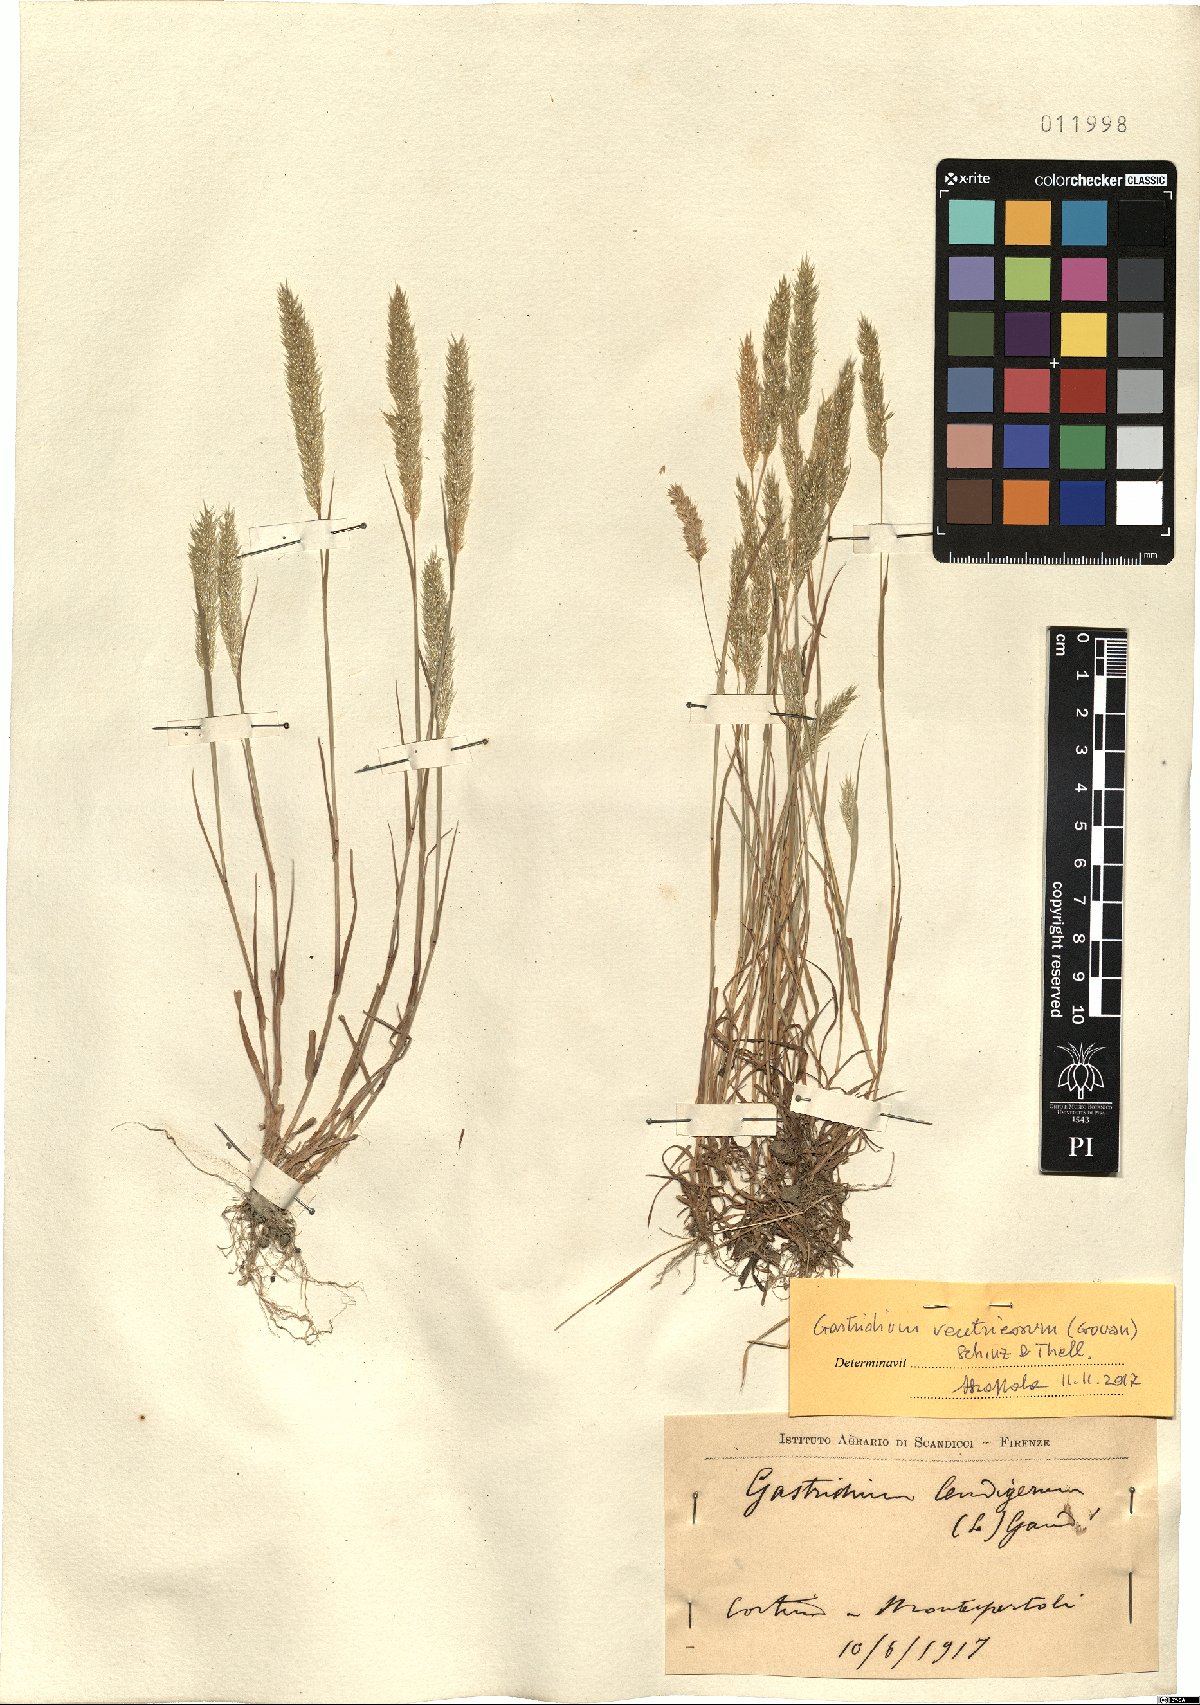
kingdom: Plantae
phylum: Tracheophyta
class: Liliopsida
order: Poales
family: Poaceae
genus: Gastridium
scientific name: Gastridium ventricosum
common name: Nit-grass
